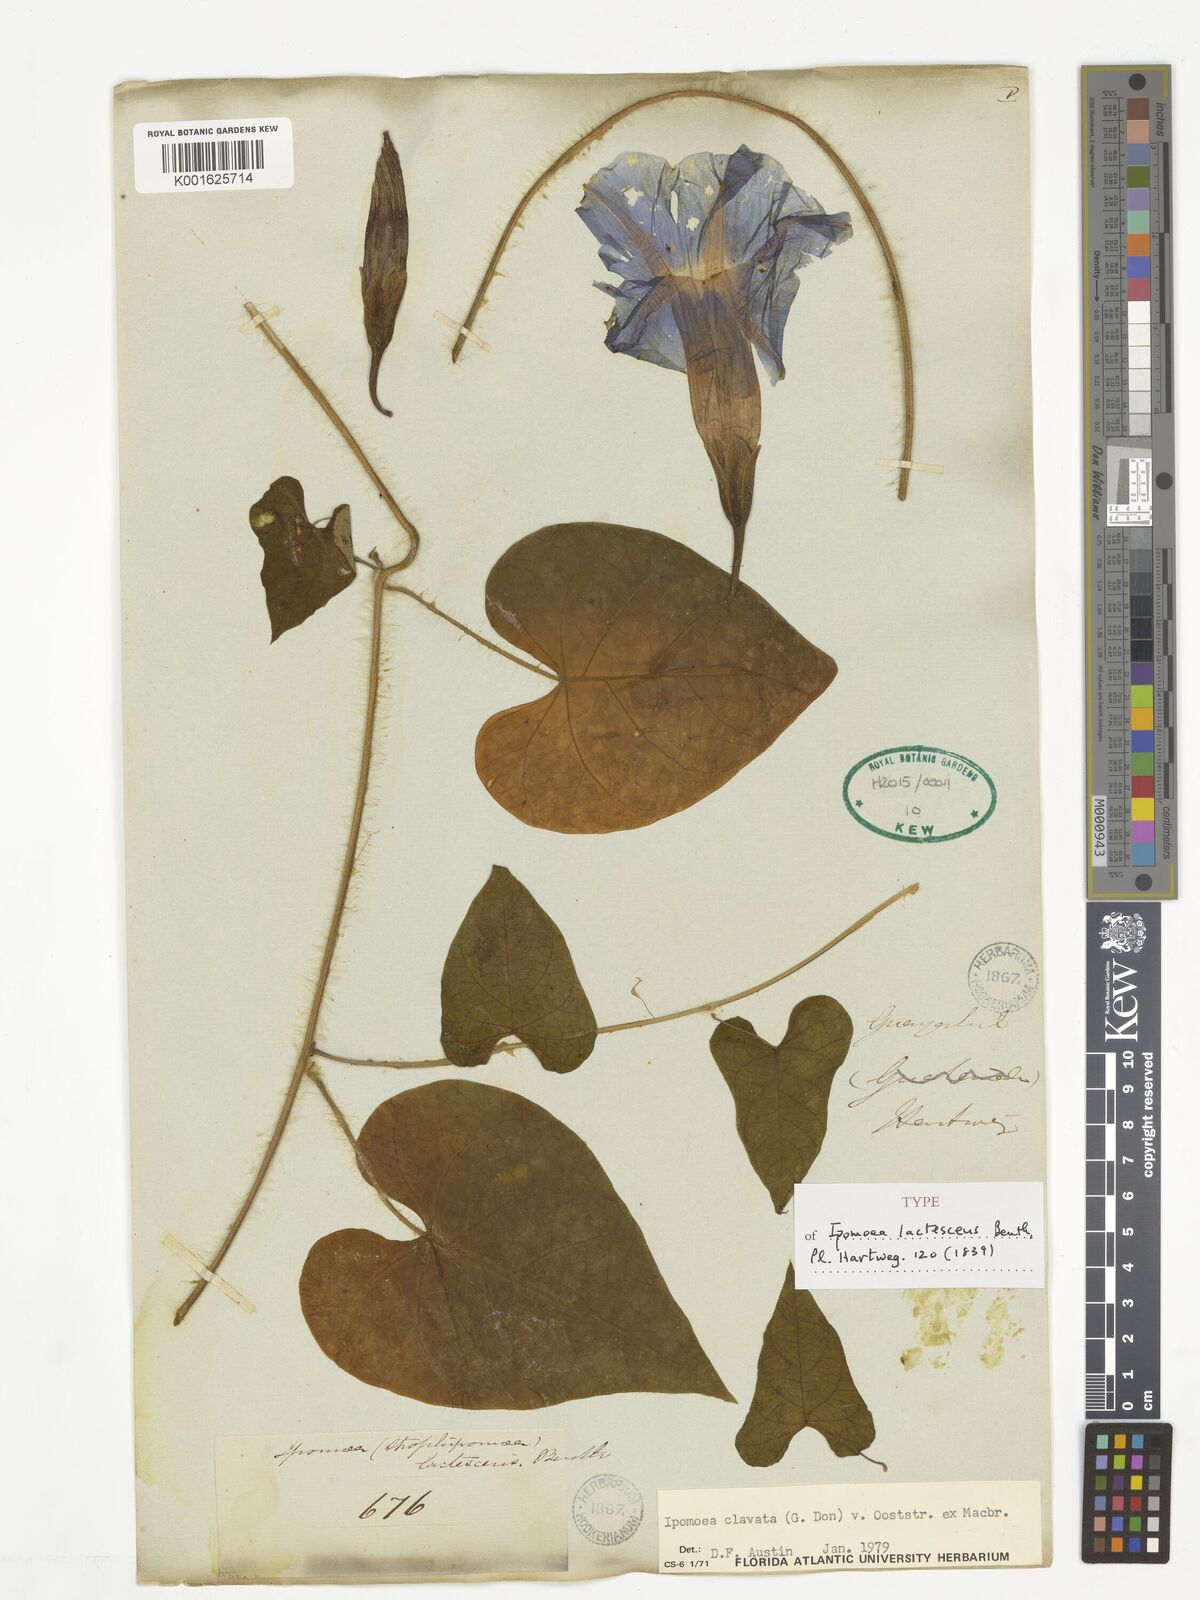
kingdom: Plantae
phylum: Tracheophyta
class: Magnoliopsida
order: Solanales
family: Convolvulaceae
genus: Ipomoea
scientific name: Ipomoea clavata
